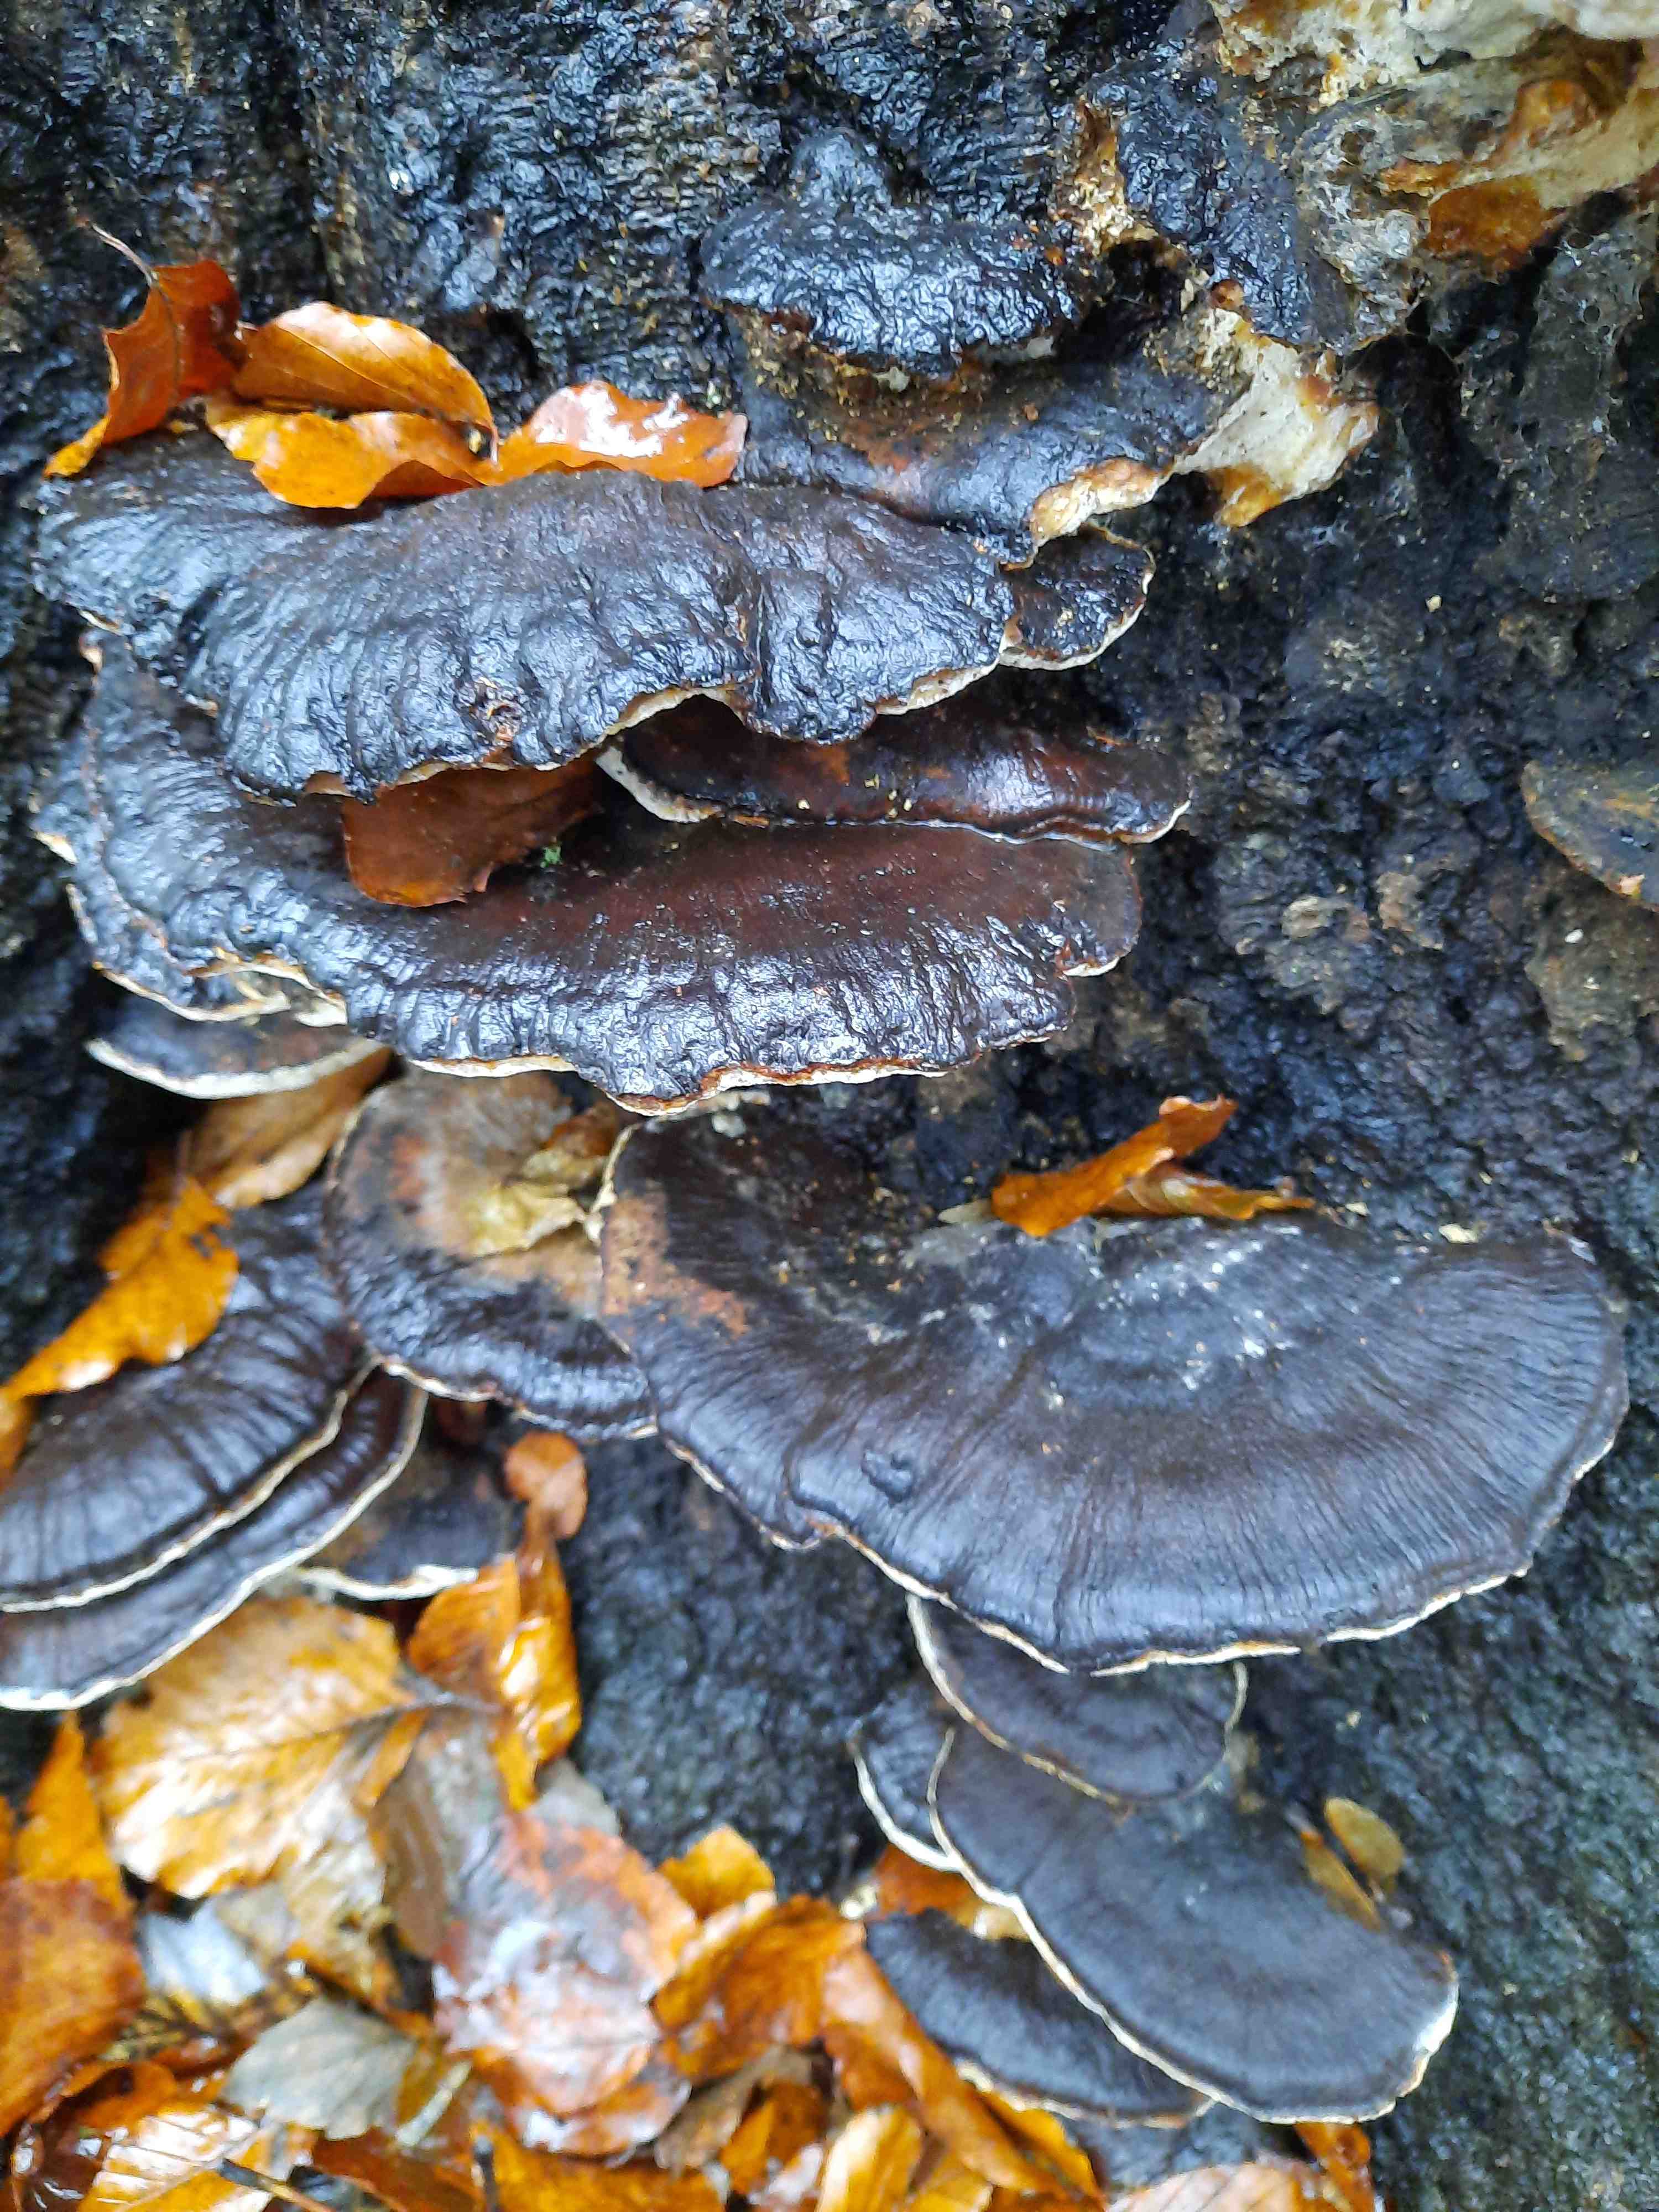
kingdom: Fungi
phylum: Basidiomycota
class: Agaricomycetes
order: Polyporales
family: Ischnodermataceae
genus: Ischnoderma
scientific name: Ischnoderma resinosum
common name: løv-tjæreporesvamp
